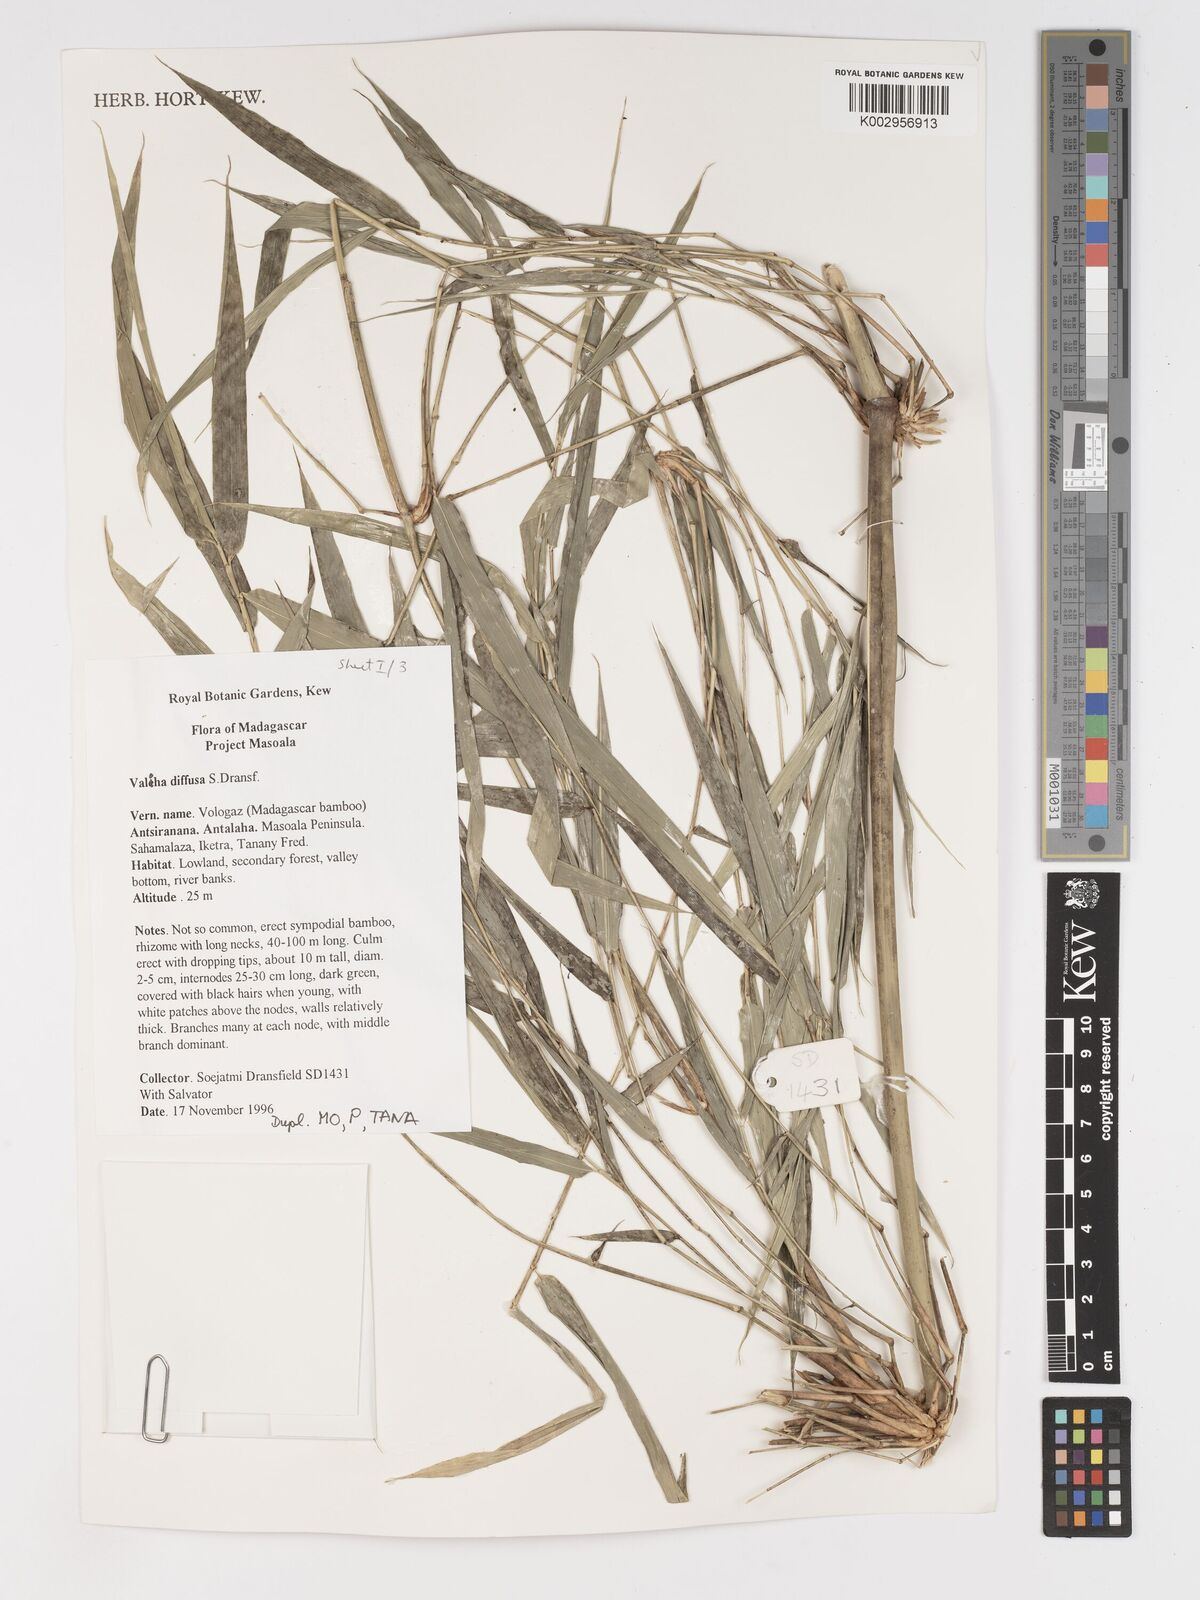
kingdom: Plantae
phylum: Tracheophyta
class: Liliopsida
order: Poales
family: Poaceae
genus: Valiha
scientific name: Valiha diffusa
